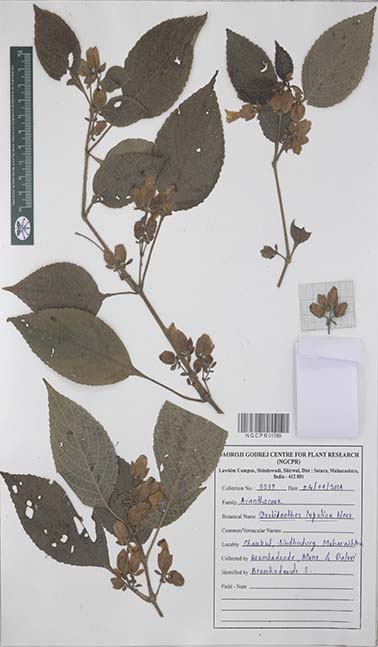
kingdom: Plantae
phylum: Tracheophyta
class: Magnoliopsida
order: Lamiales
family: Acanthaceae
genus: Strobilanthes
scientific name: Strobilanthes lupulina
